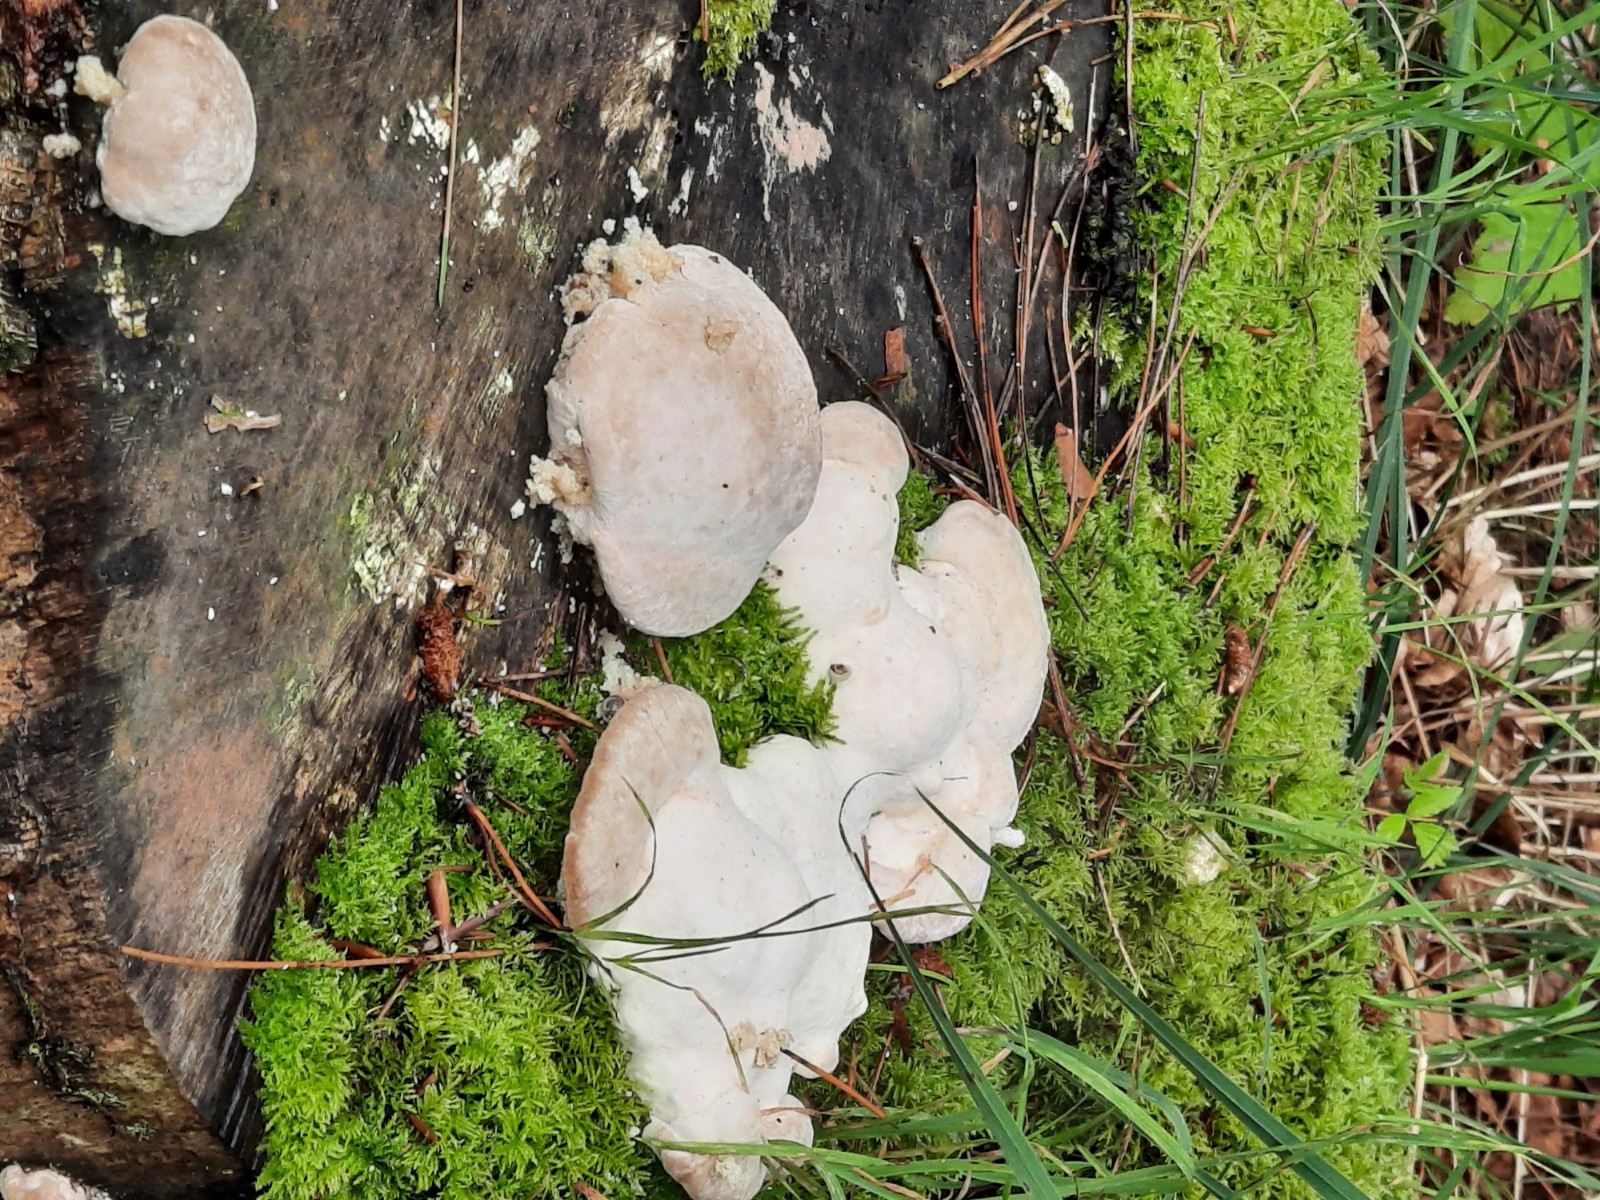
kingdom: Fungi
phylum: Basidiomycota
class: Agaricomycetes
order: Polyporales
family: Polyporaceae
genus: Trametes
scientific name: Trametes gibbosa
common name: puklet læderporesvamp
